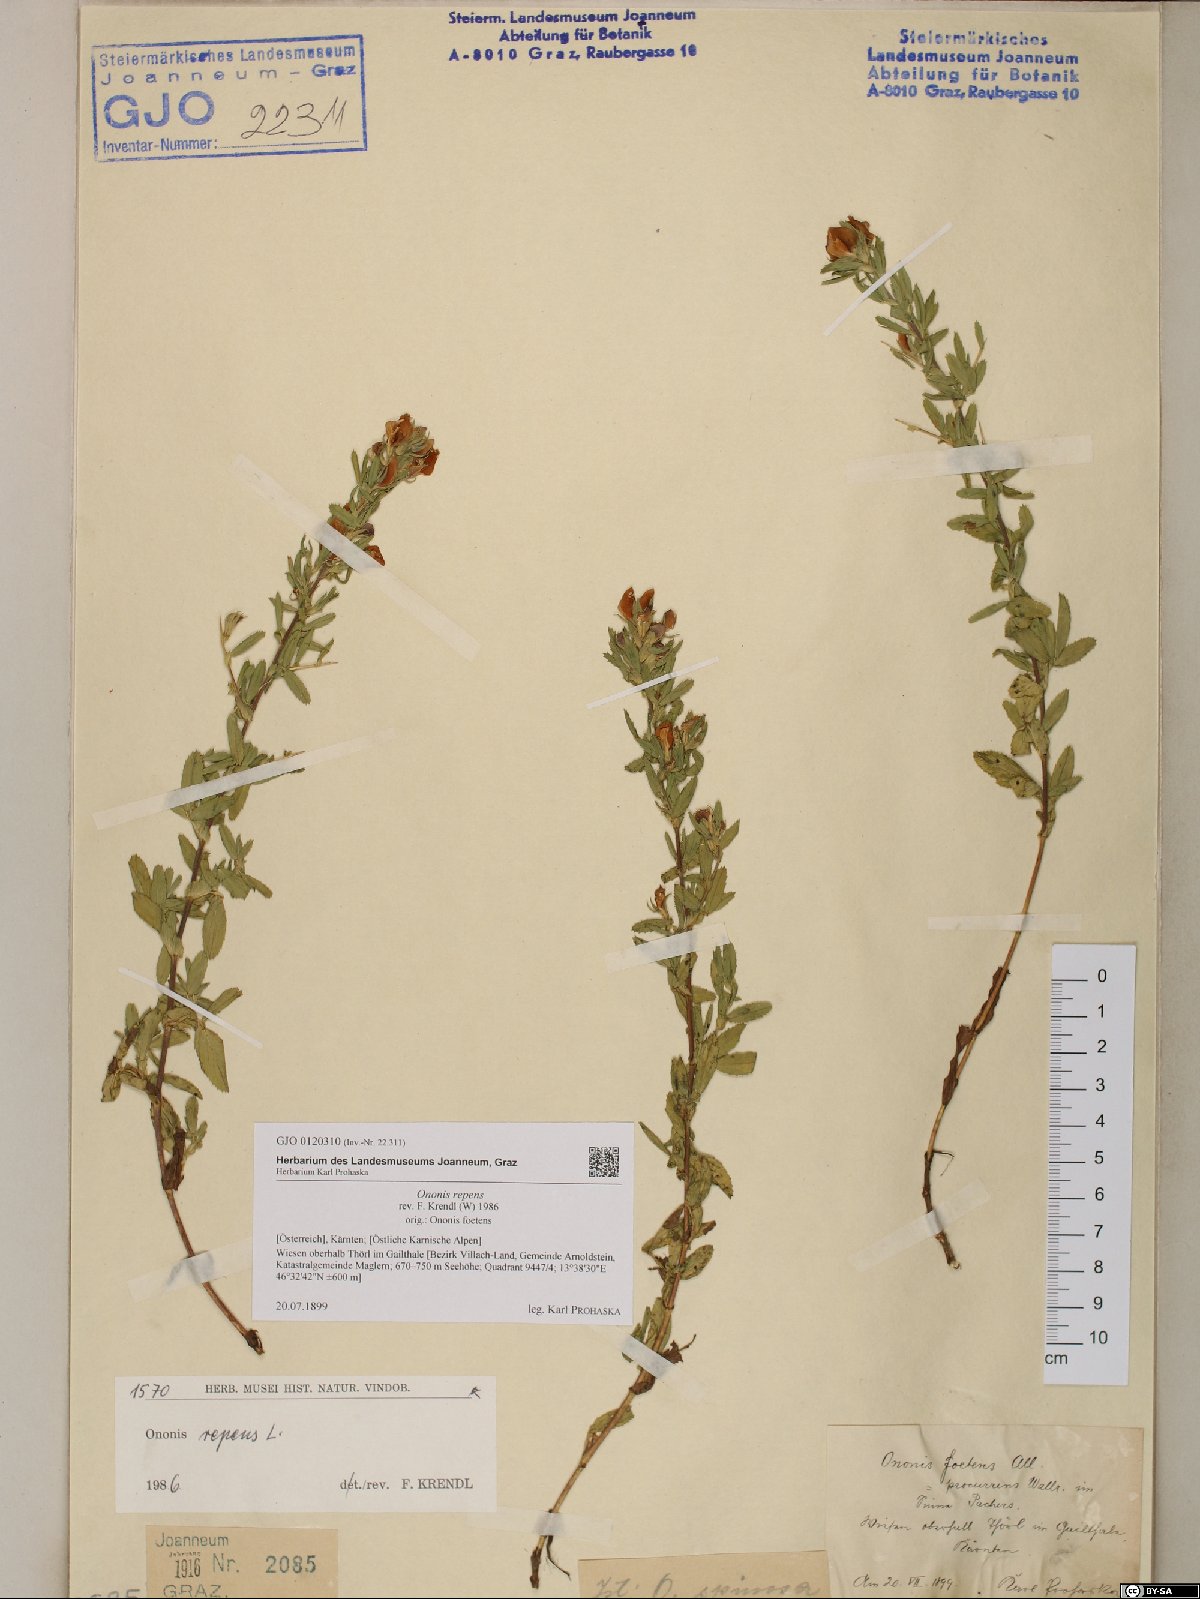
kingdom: Plantae
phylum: Tracheophyta
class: Magnoliopsida
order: Fabales
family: Fabaceae
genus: Ononis
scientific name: Ononis spinosa
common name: Spiny restharrow
